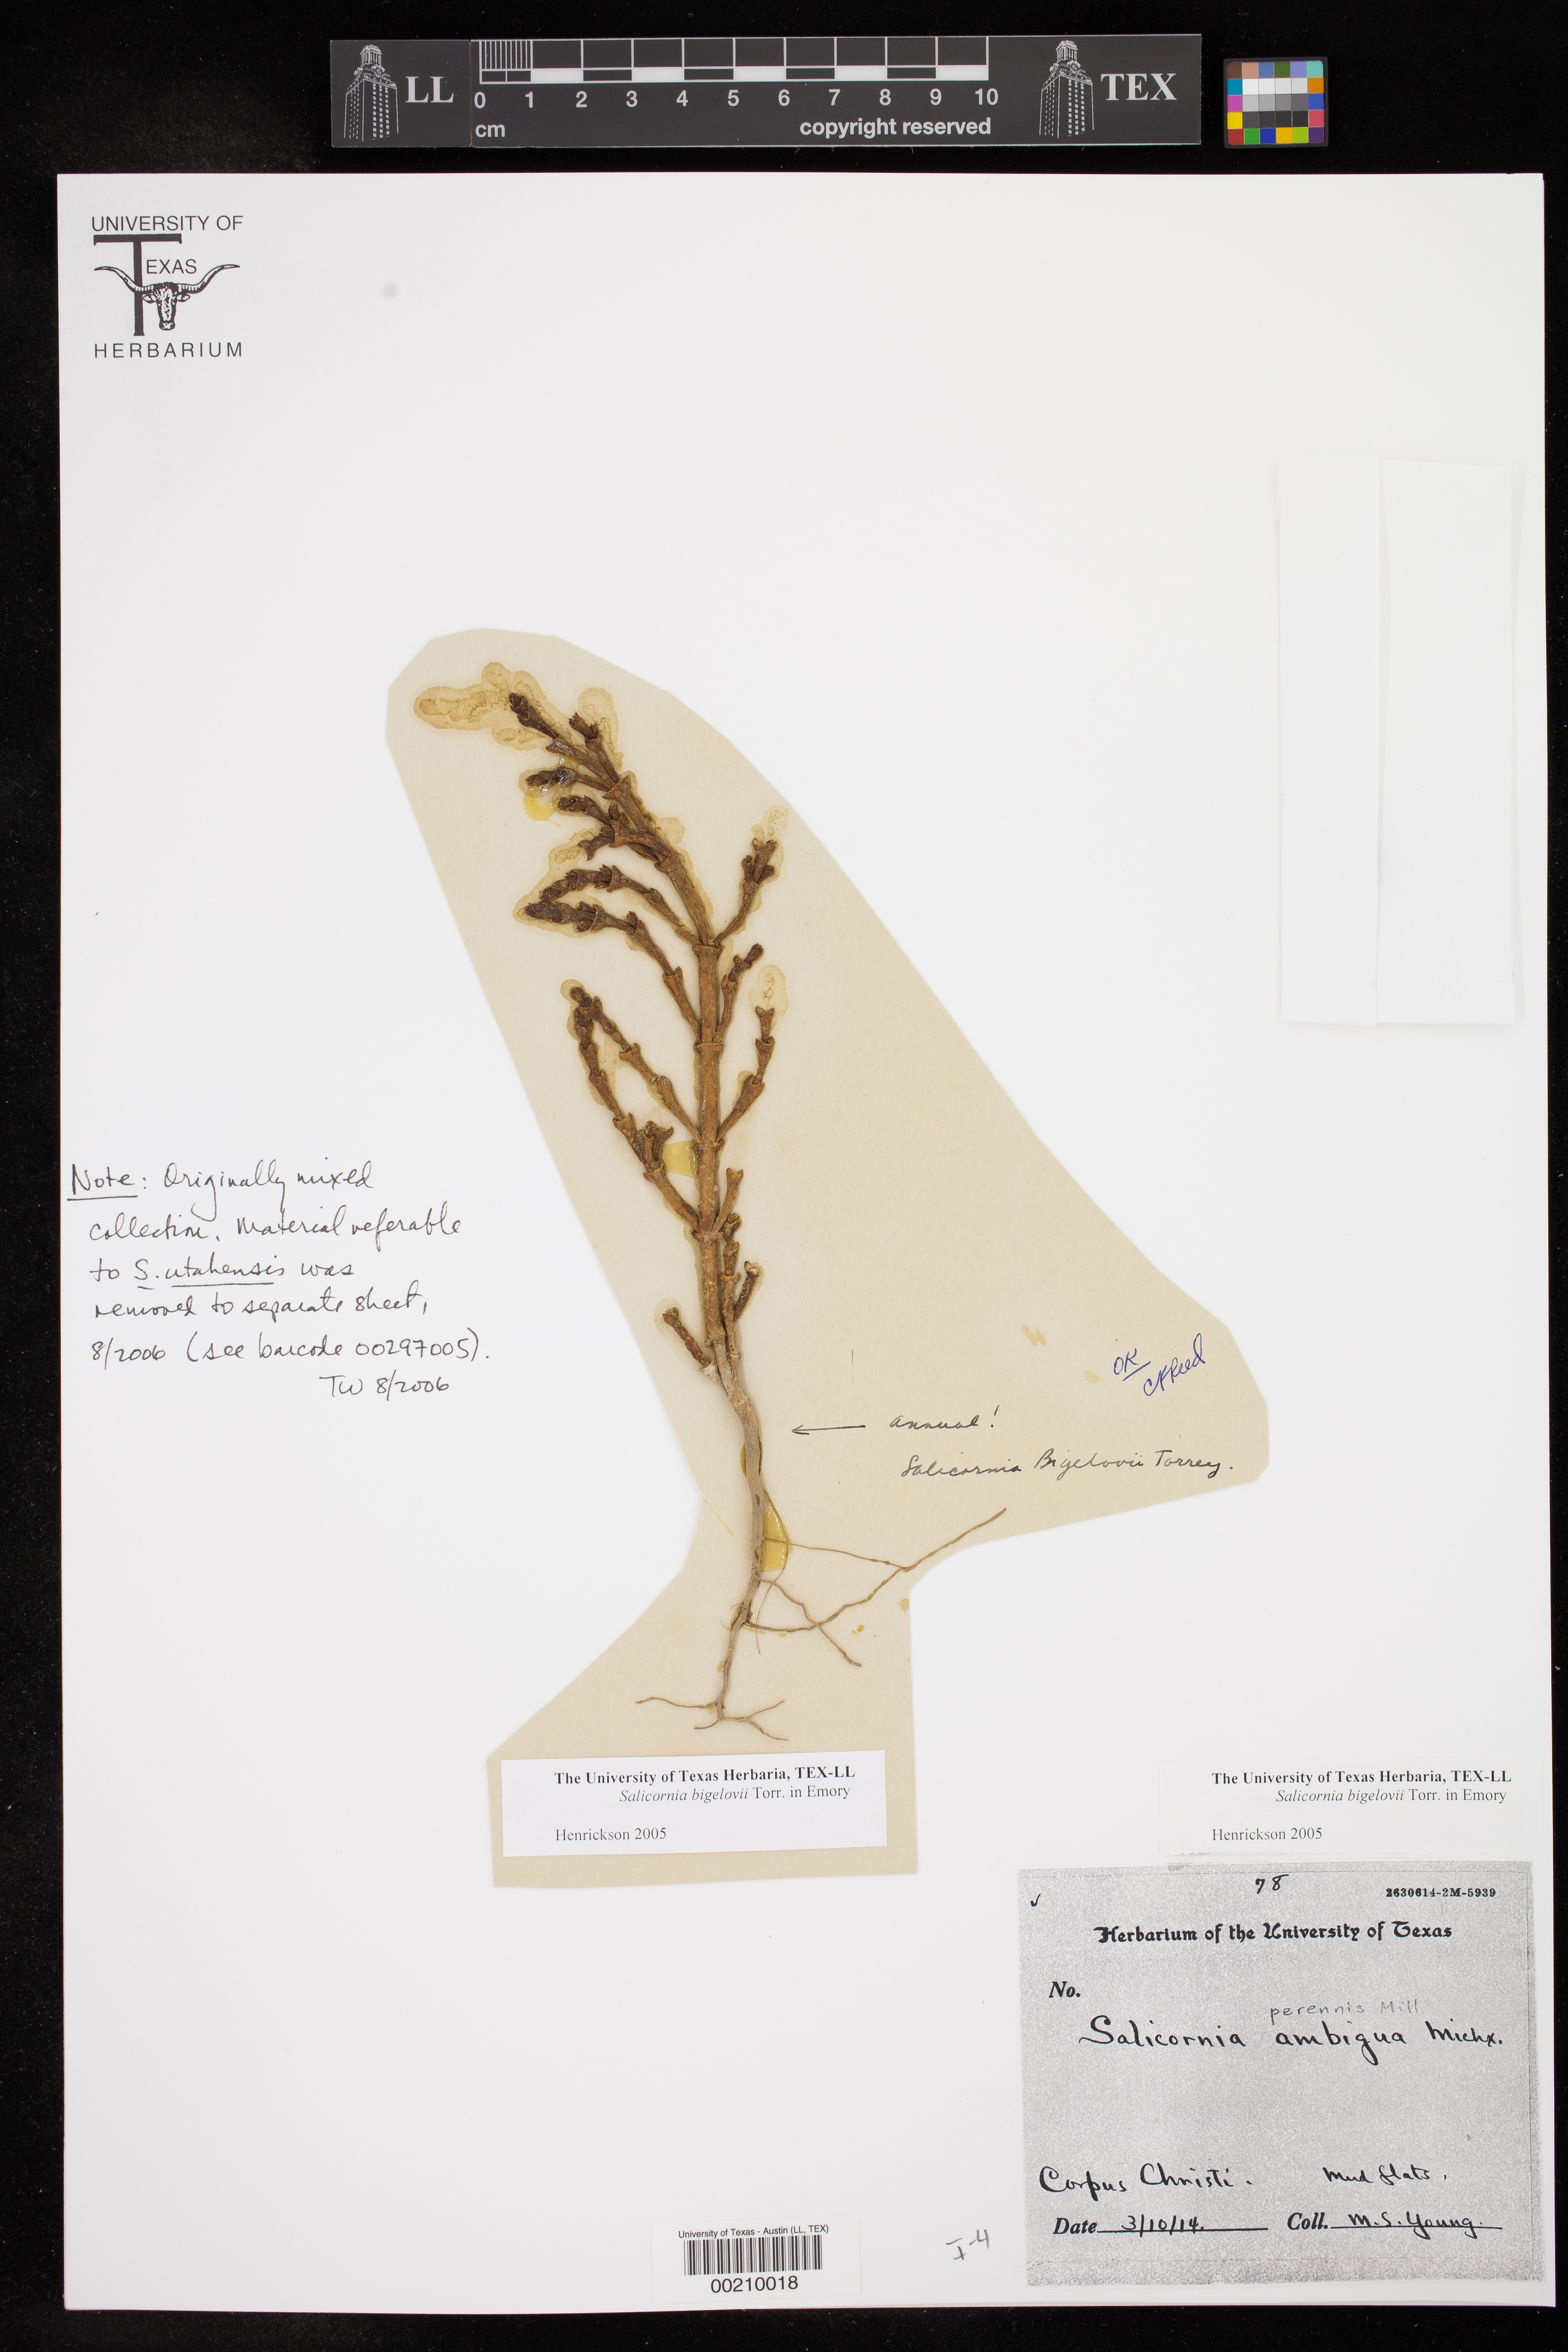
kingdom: Plantae
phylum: Tracheophyta
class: Magnoliopsida
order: Caryophyllales
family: Amaranthaceae
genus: Salicornia
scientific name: Salicornia bigelovii
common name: Dwarf glasswort
